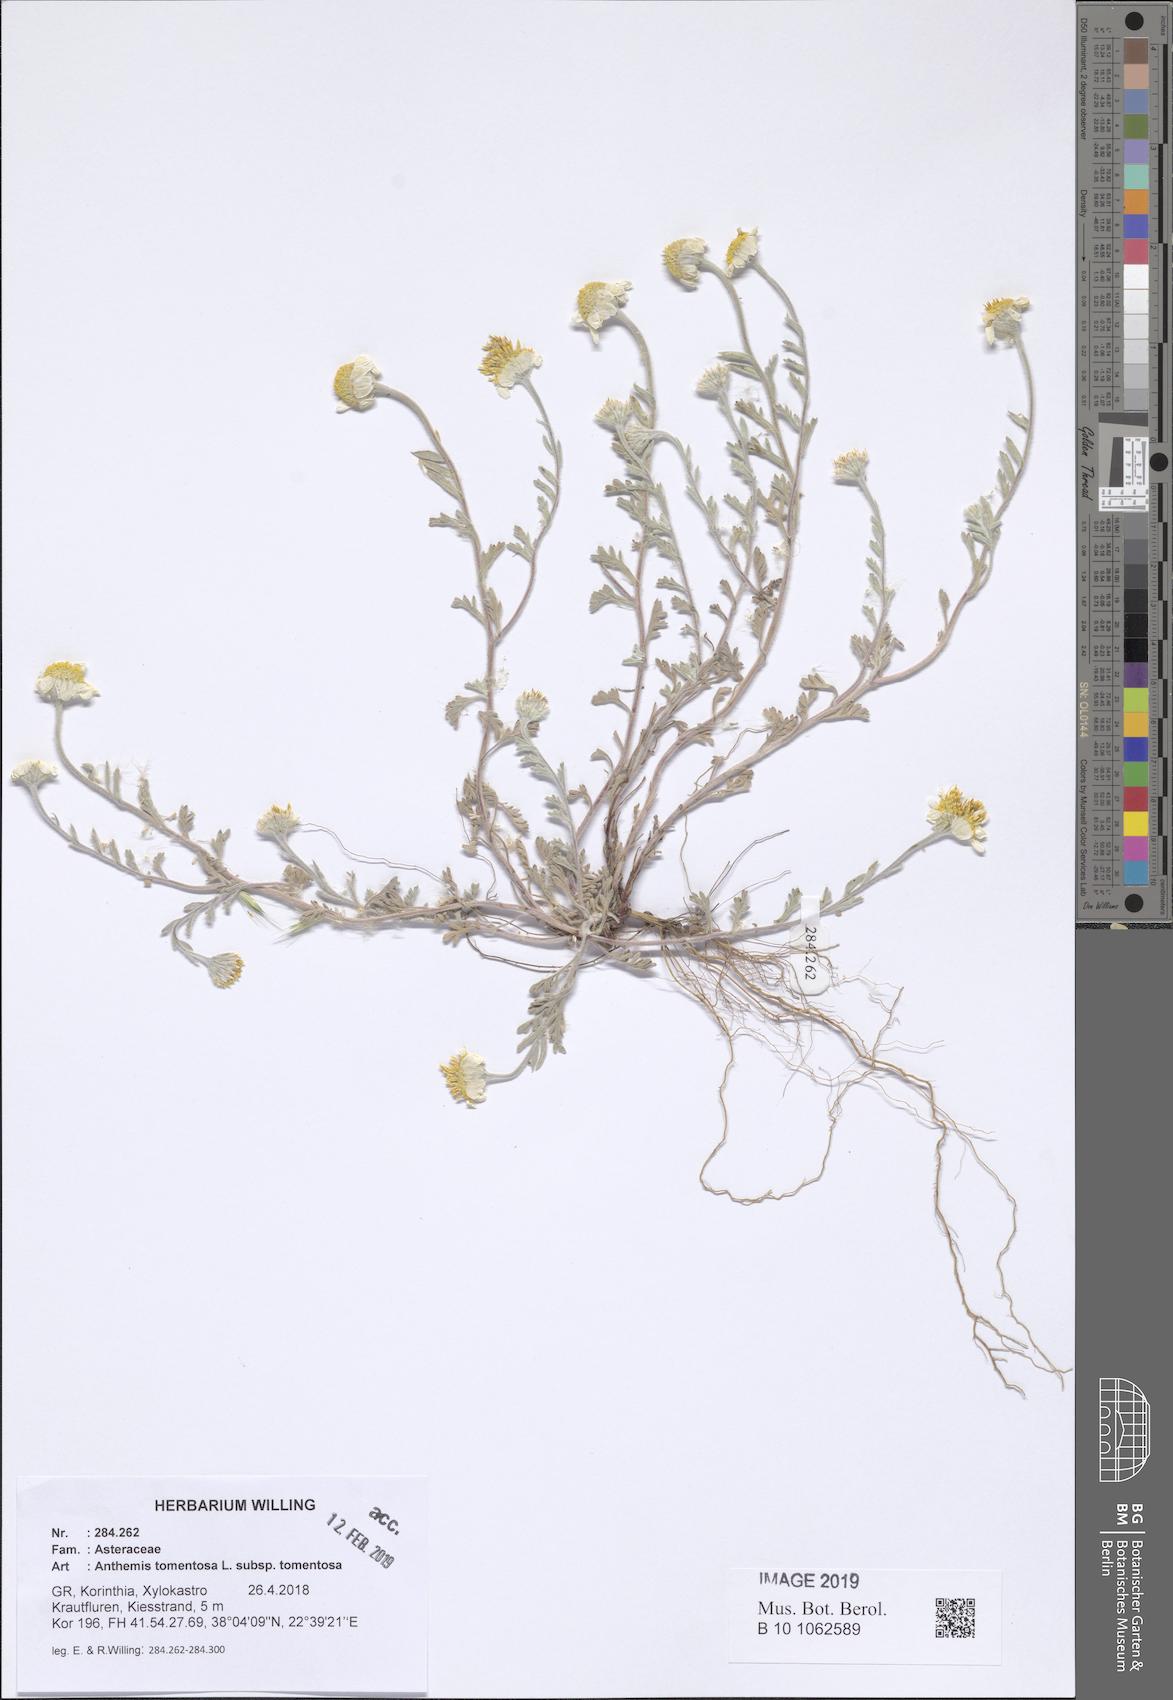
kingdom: Plantae
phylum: Tracheophyta
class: Magnoliopsida
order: Asterales
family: Asteraceae
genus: Anthemis
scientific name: Anthemis tomentosa
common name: Woolly chamomile
